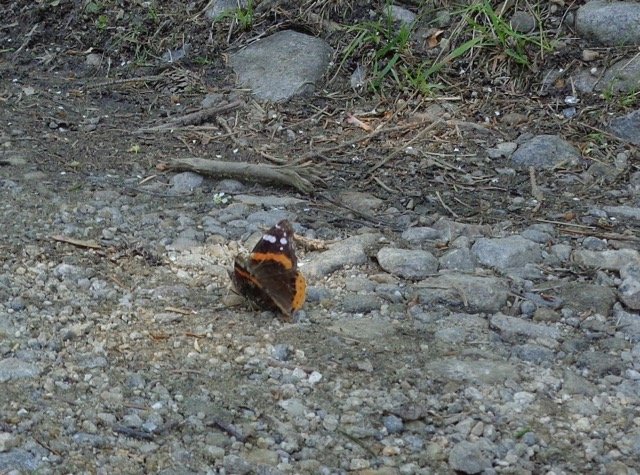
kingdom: Animalia
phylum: Arthropoda
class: Insecta
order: Lepidoptera
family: Nymphalidae
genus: Vanessa
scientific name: Vanessa atalanta
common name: Red Admiral
